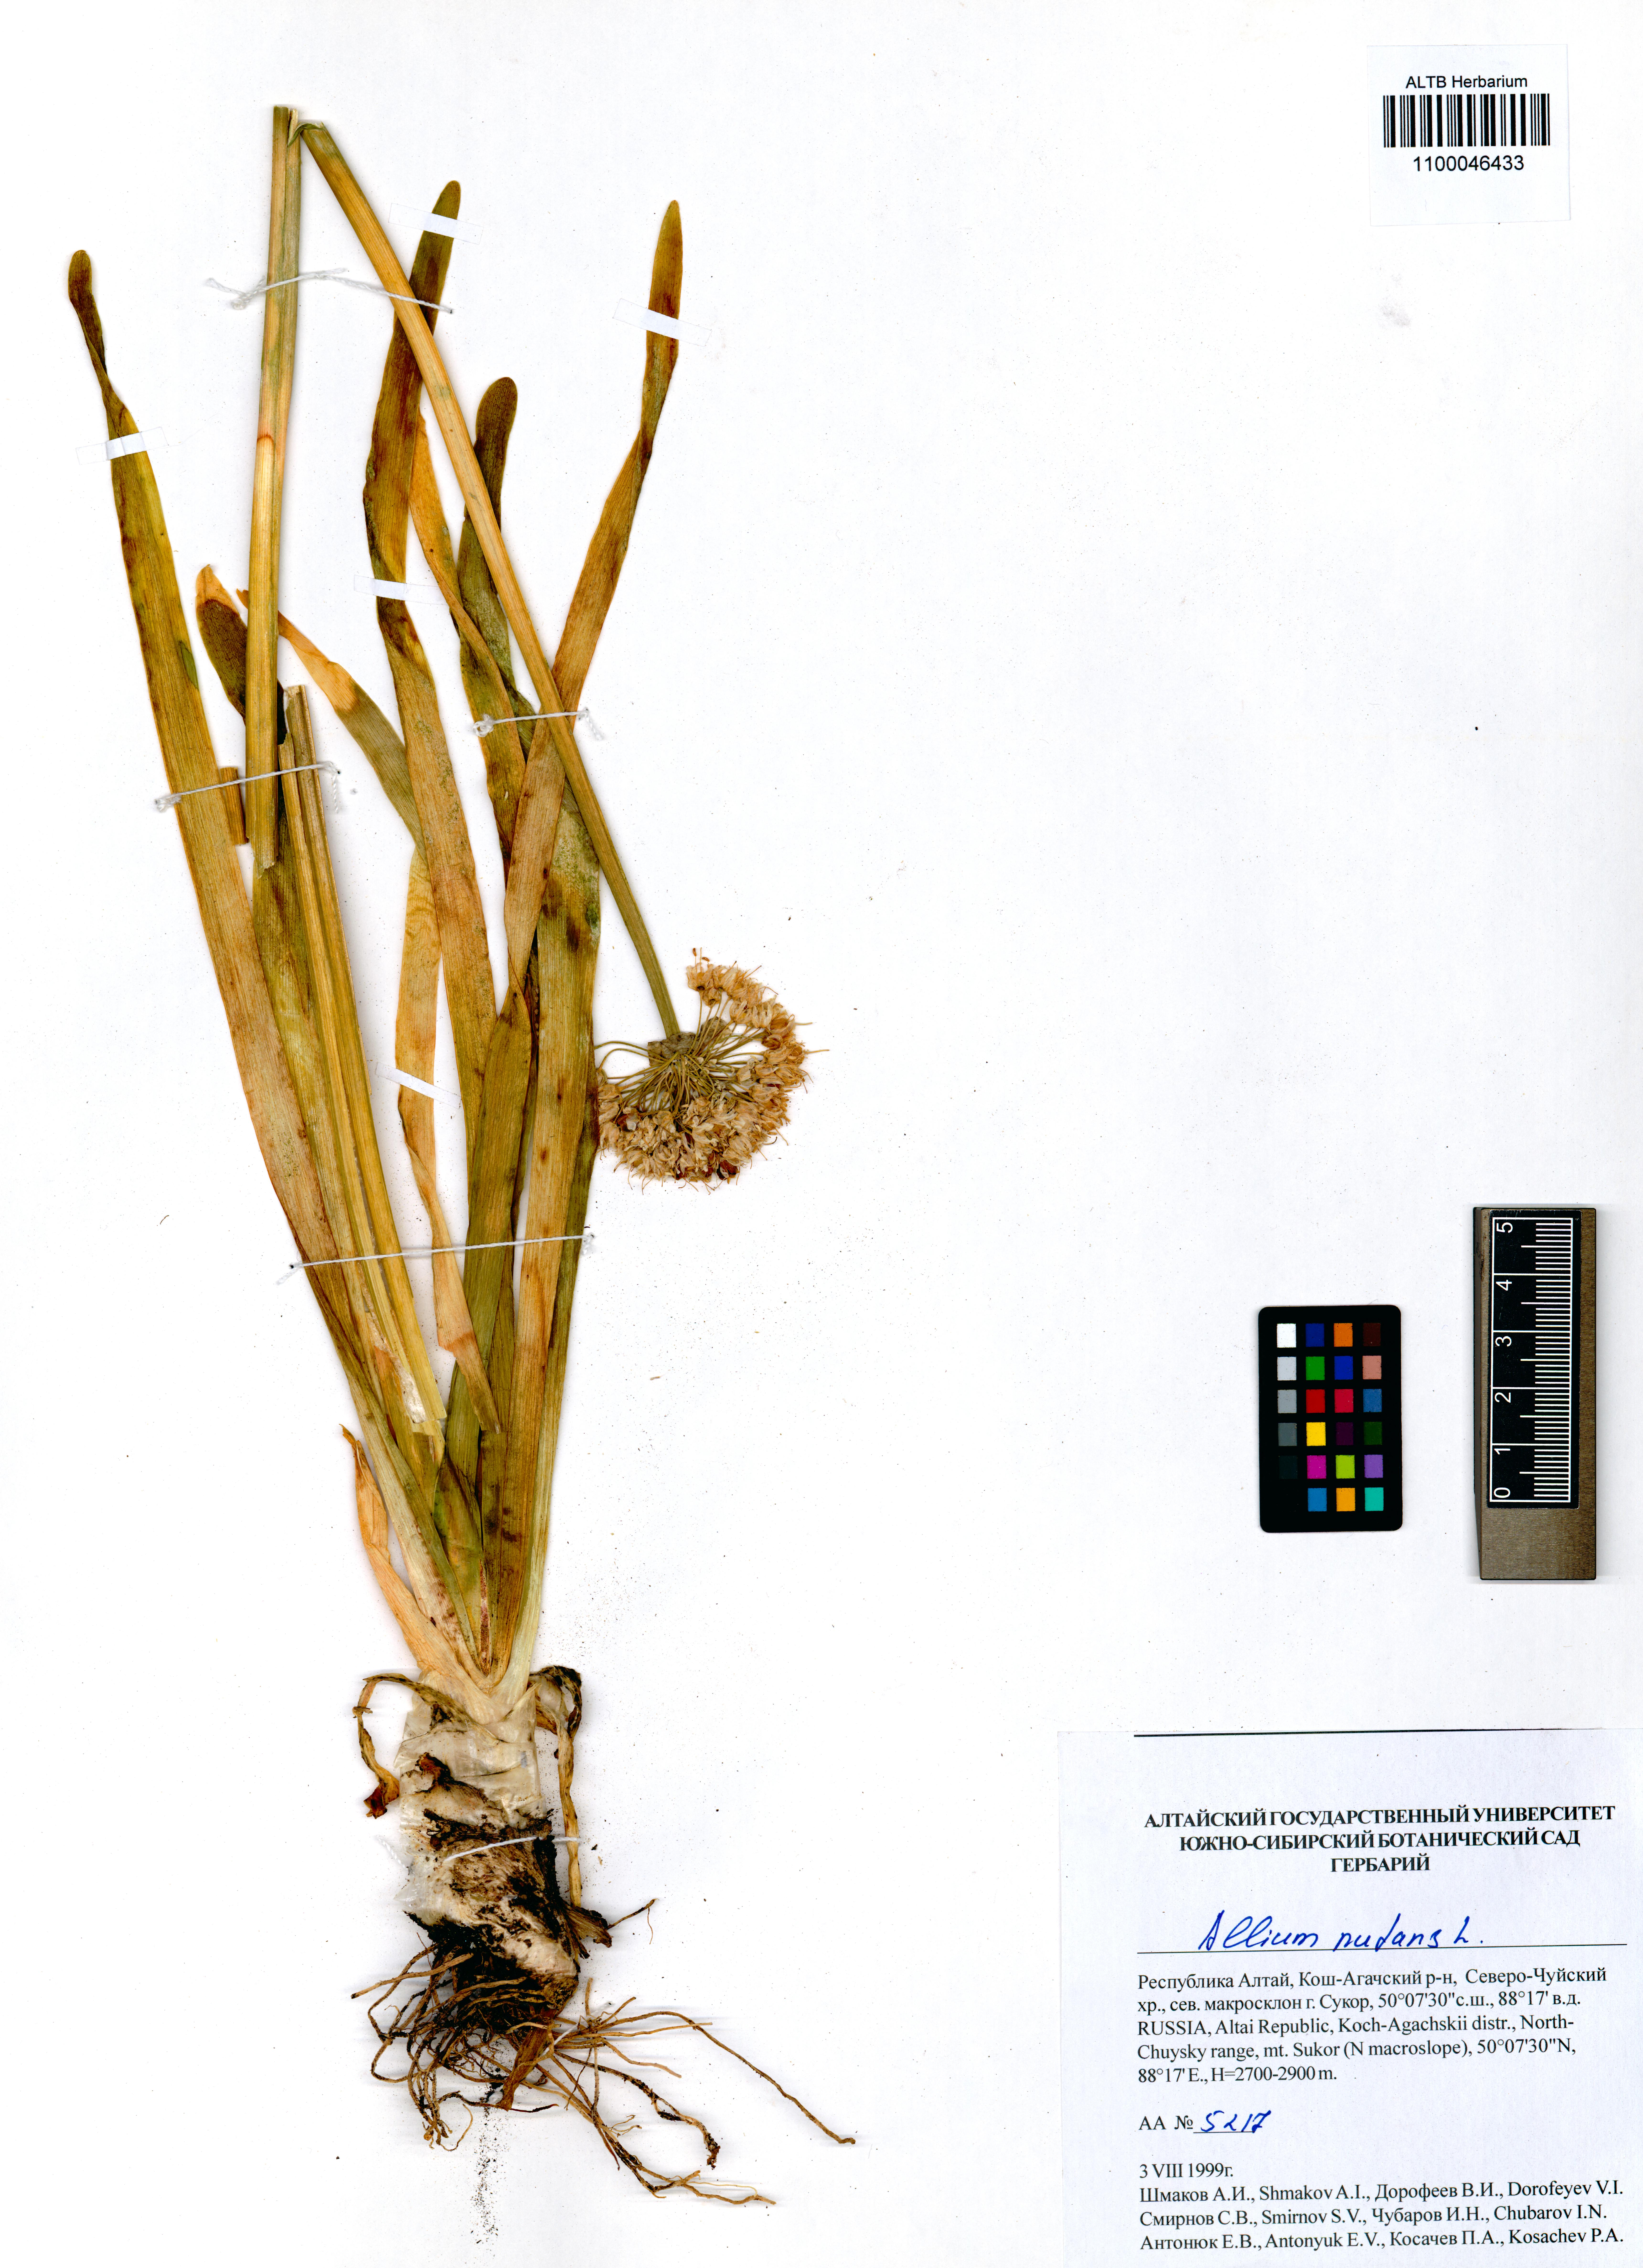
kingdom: Plantae
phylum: Tracheophyta
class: Liliopsida
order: Asparagales
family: Amaryllidaceae
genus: Allium
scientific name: Allium nutans
